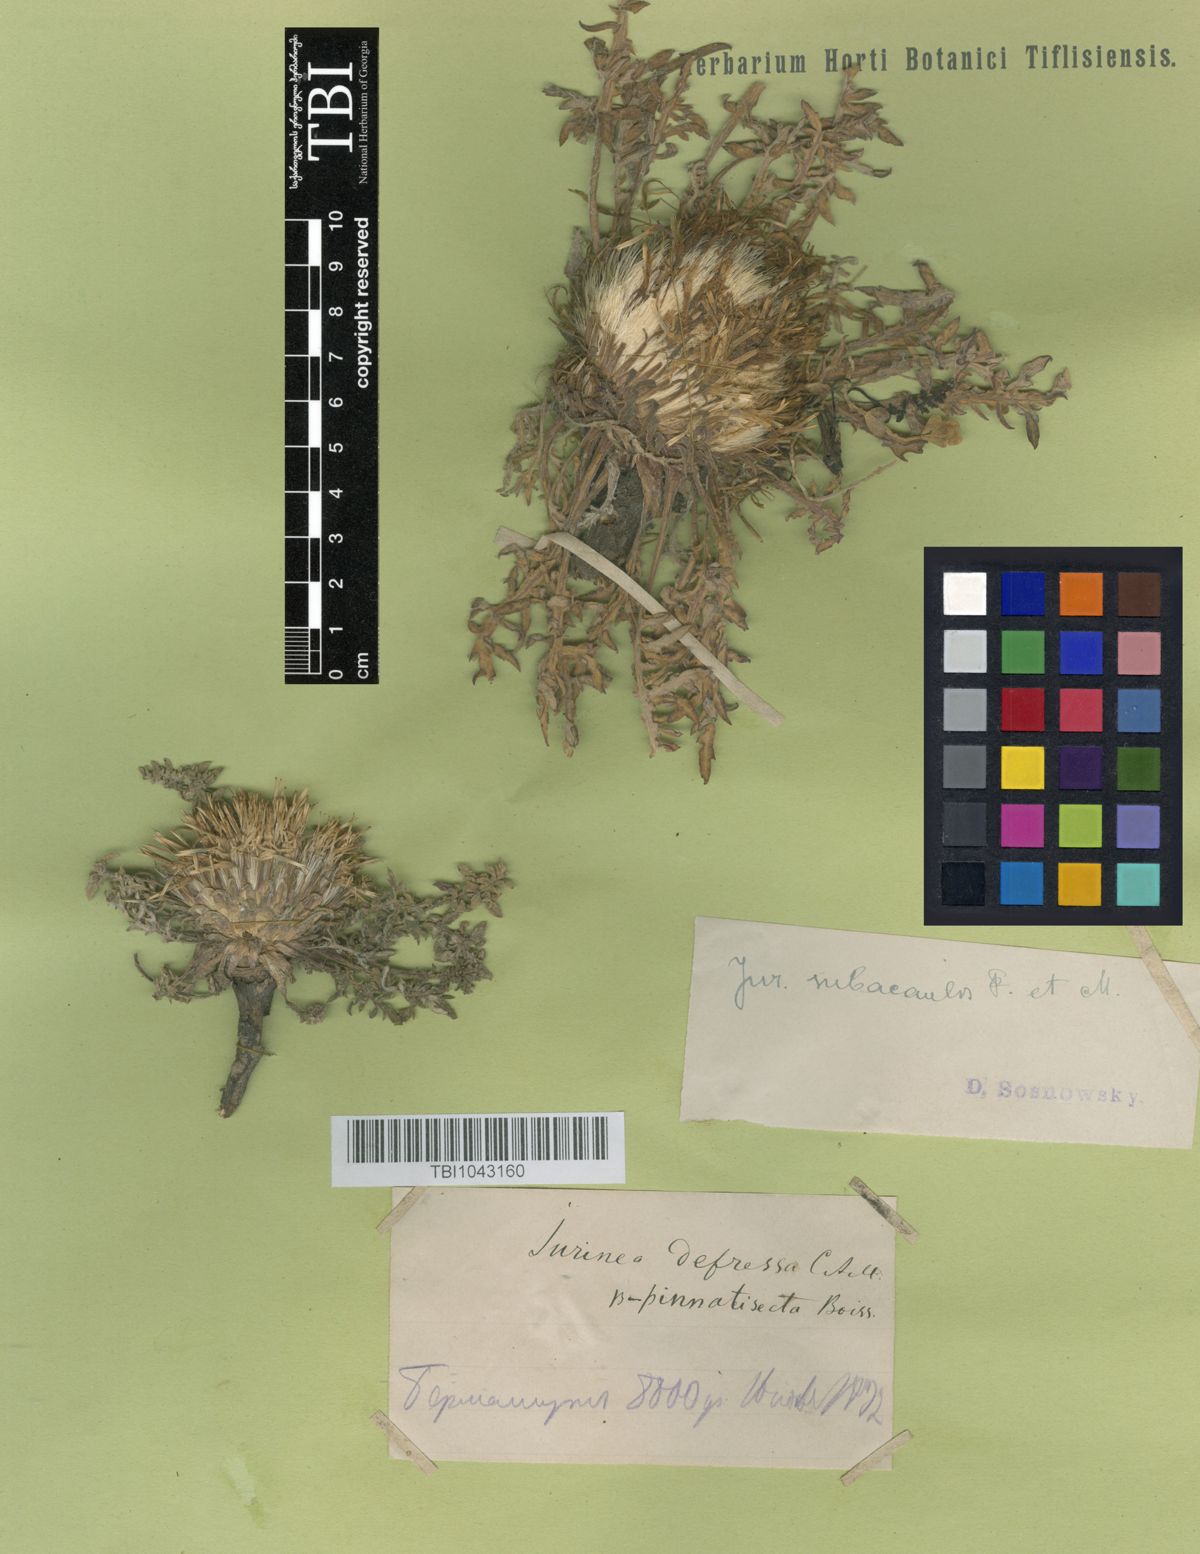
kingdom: Plantae
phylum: Tracheophyta
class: Magnoliopsida
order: Asterales
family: Asteraceae
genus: Jurinea
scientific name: Jurinea moschus
